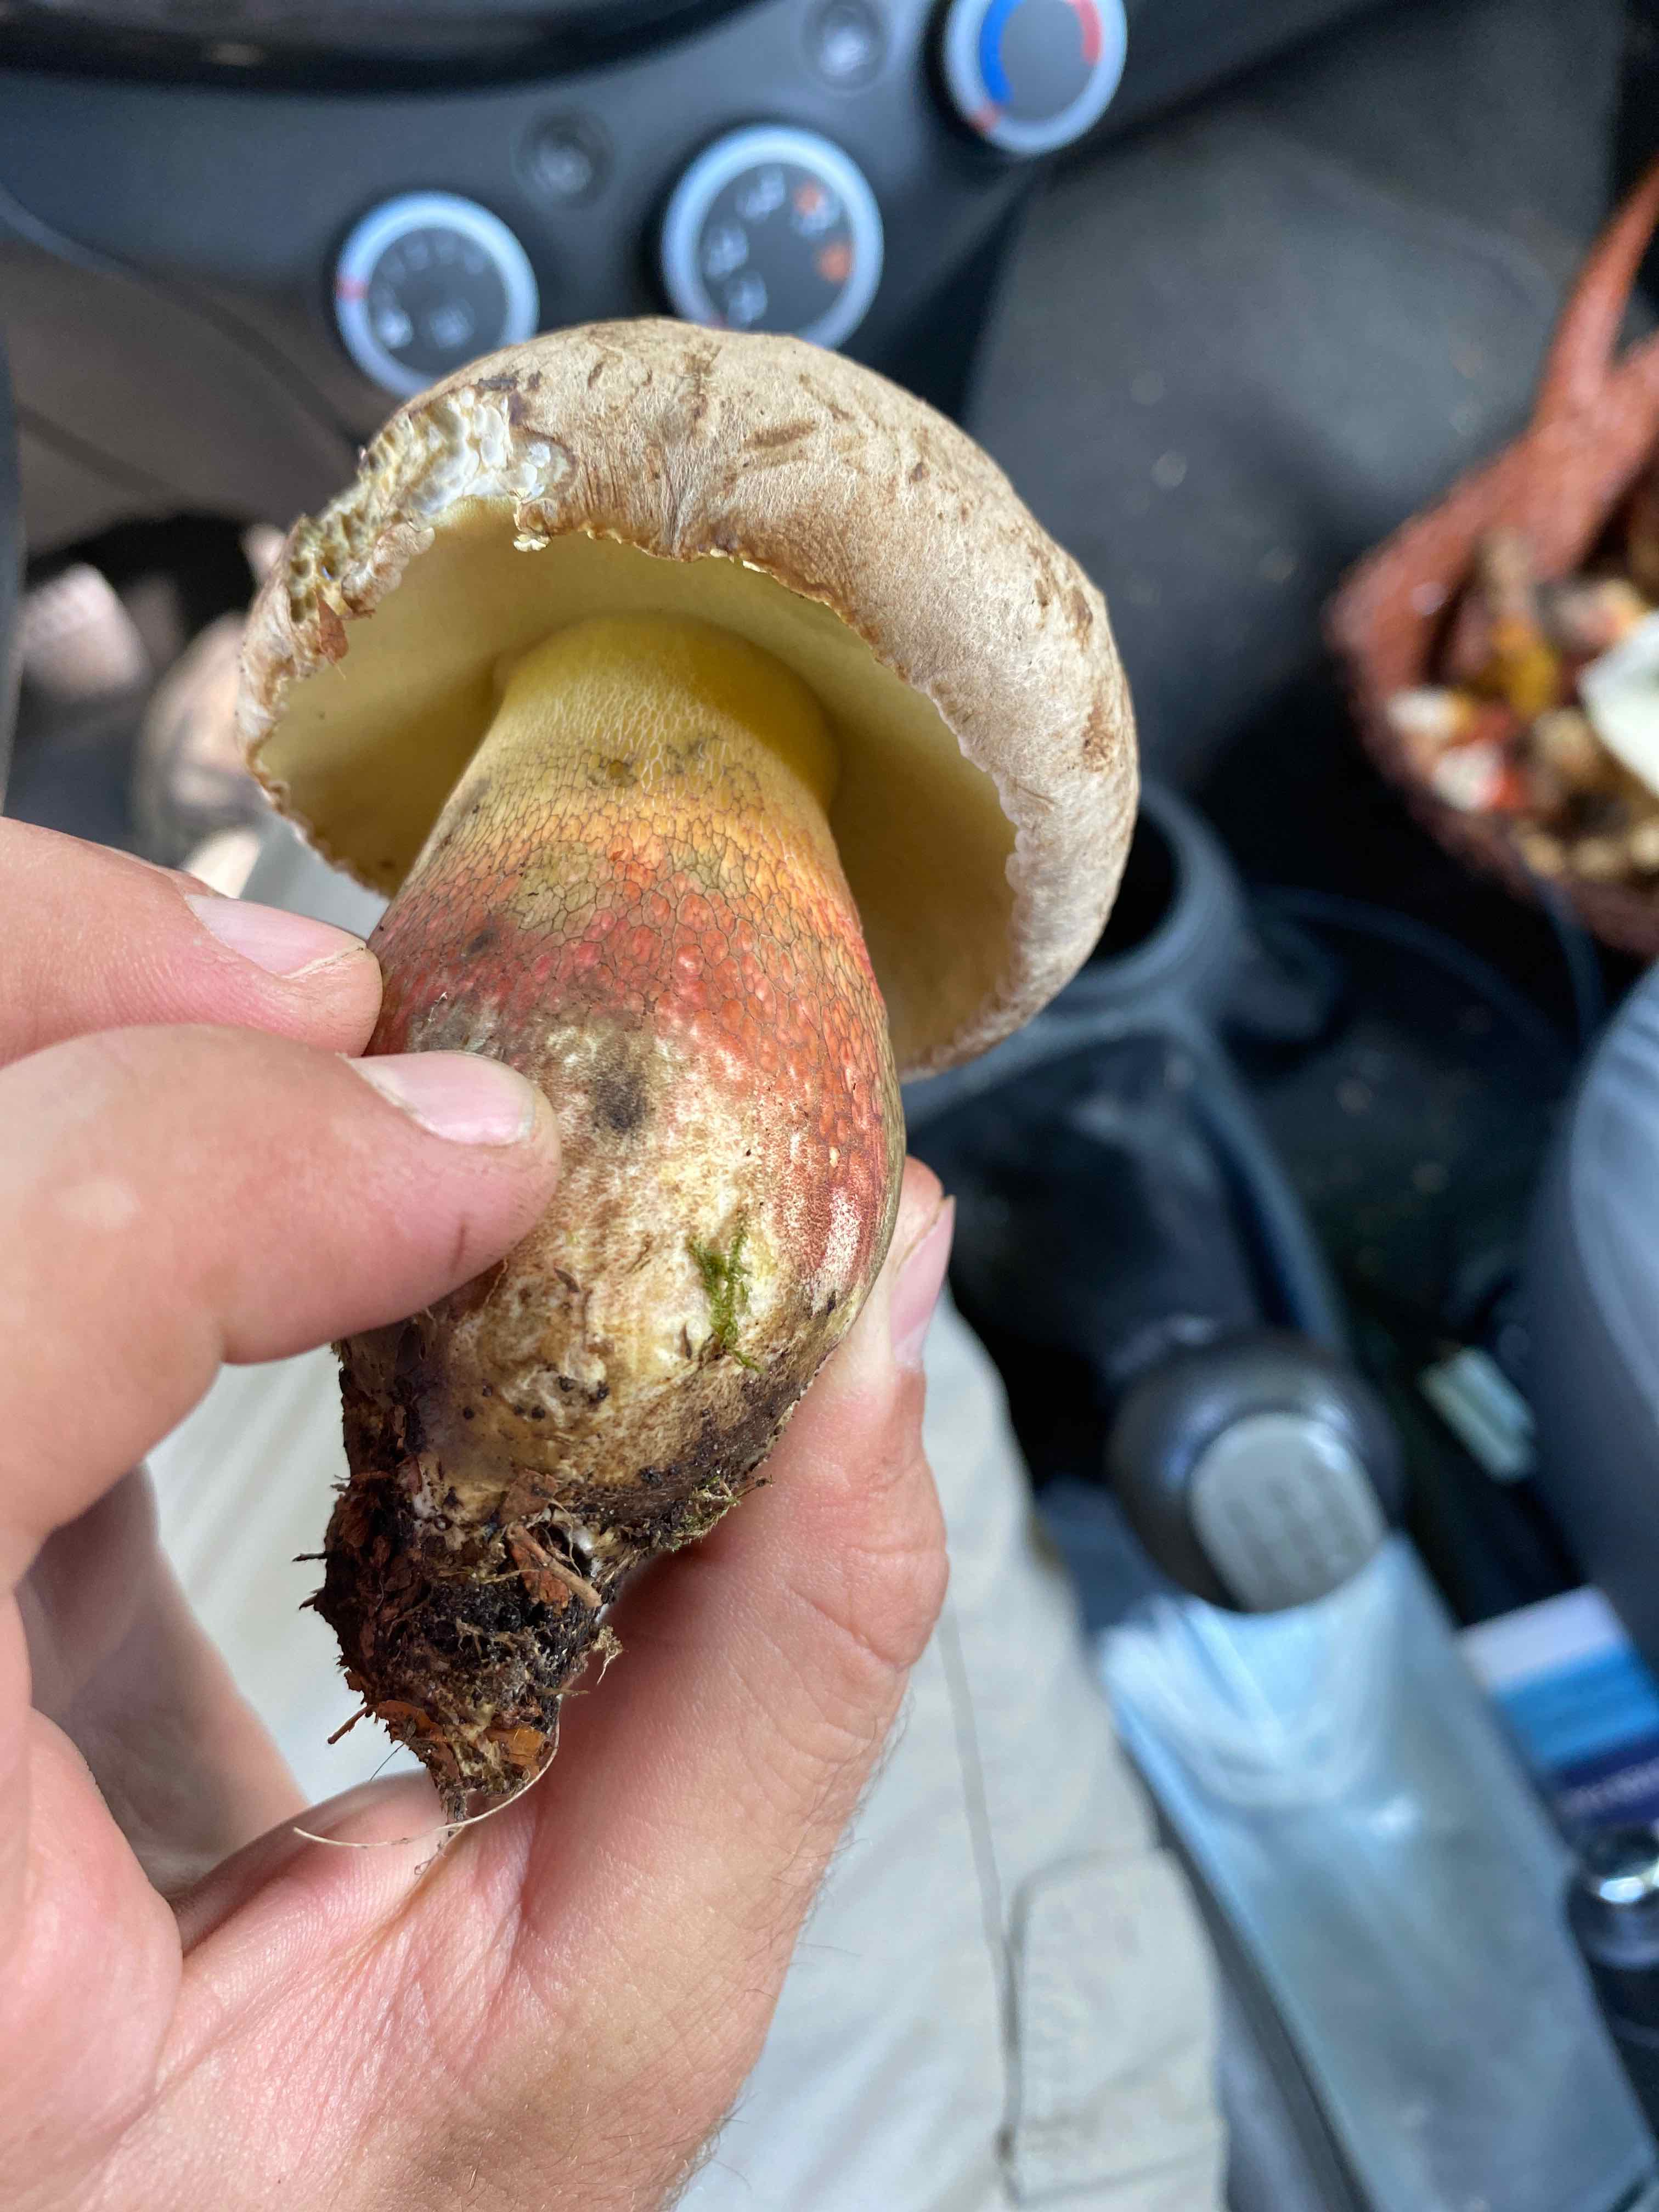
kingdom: Fungi
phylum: Basidiomycota
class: Agaricomycetes
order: Boletales
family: Boletaceae
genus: Caloboletus
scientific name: Caloboletus calopus
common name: skønfodet rørhat
